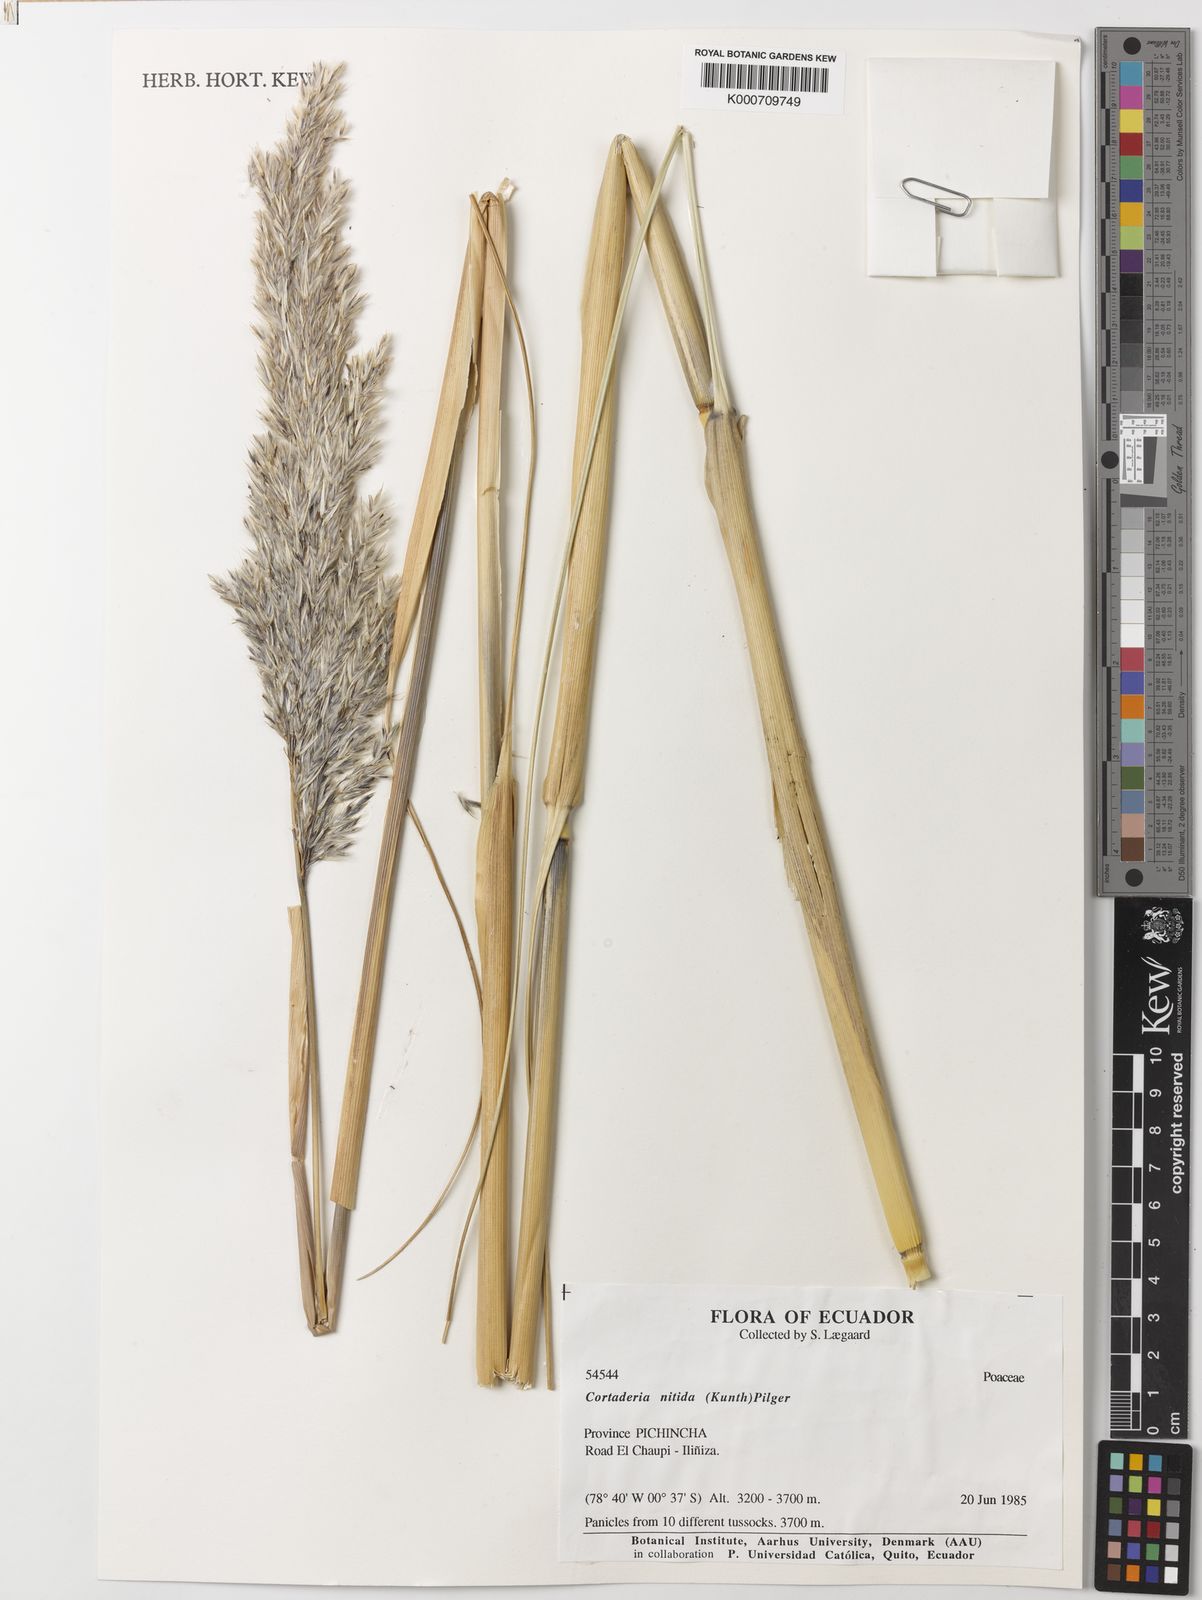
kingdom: Plantae
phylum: Tracheophyta
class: Liliopsida
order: Poales
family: Poaceae
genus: Cortaderia
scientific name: Cortaderia nitida
